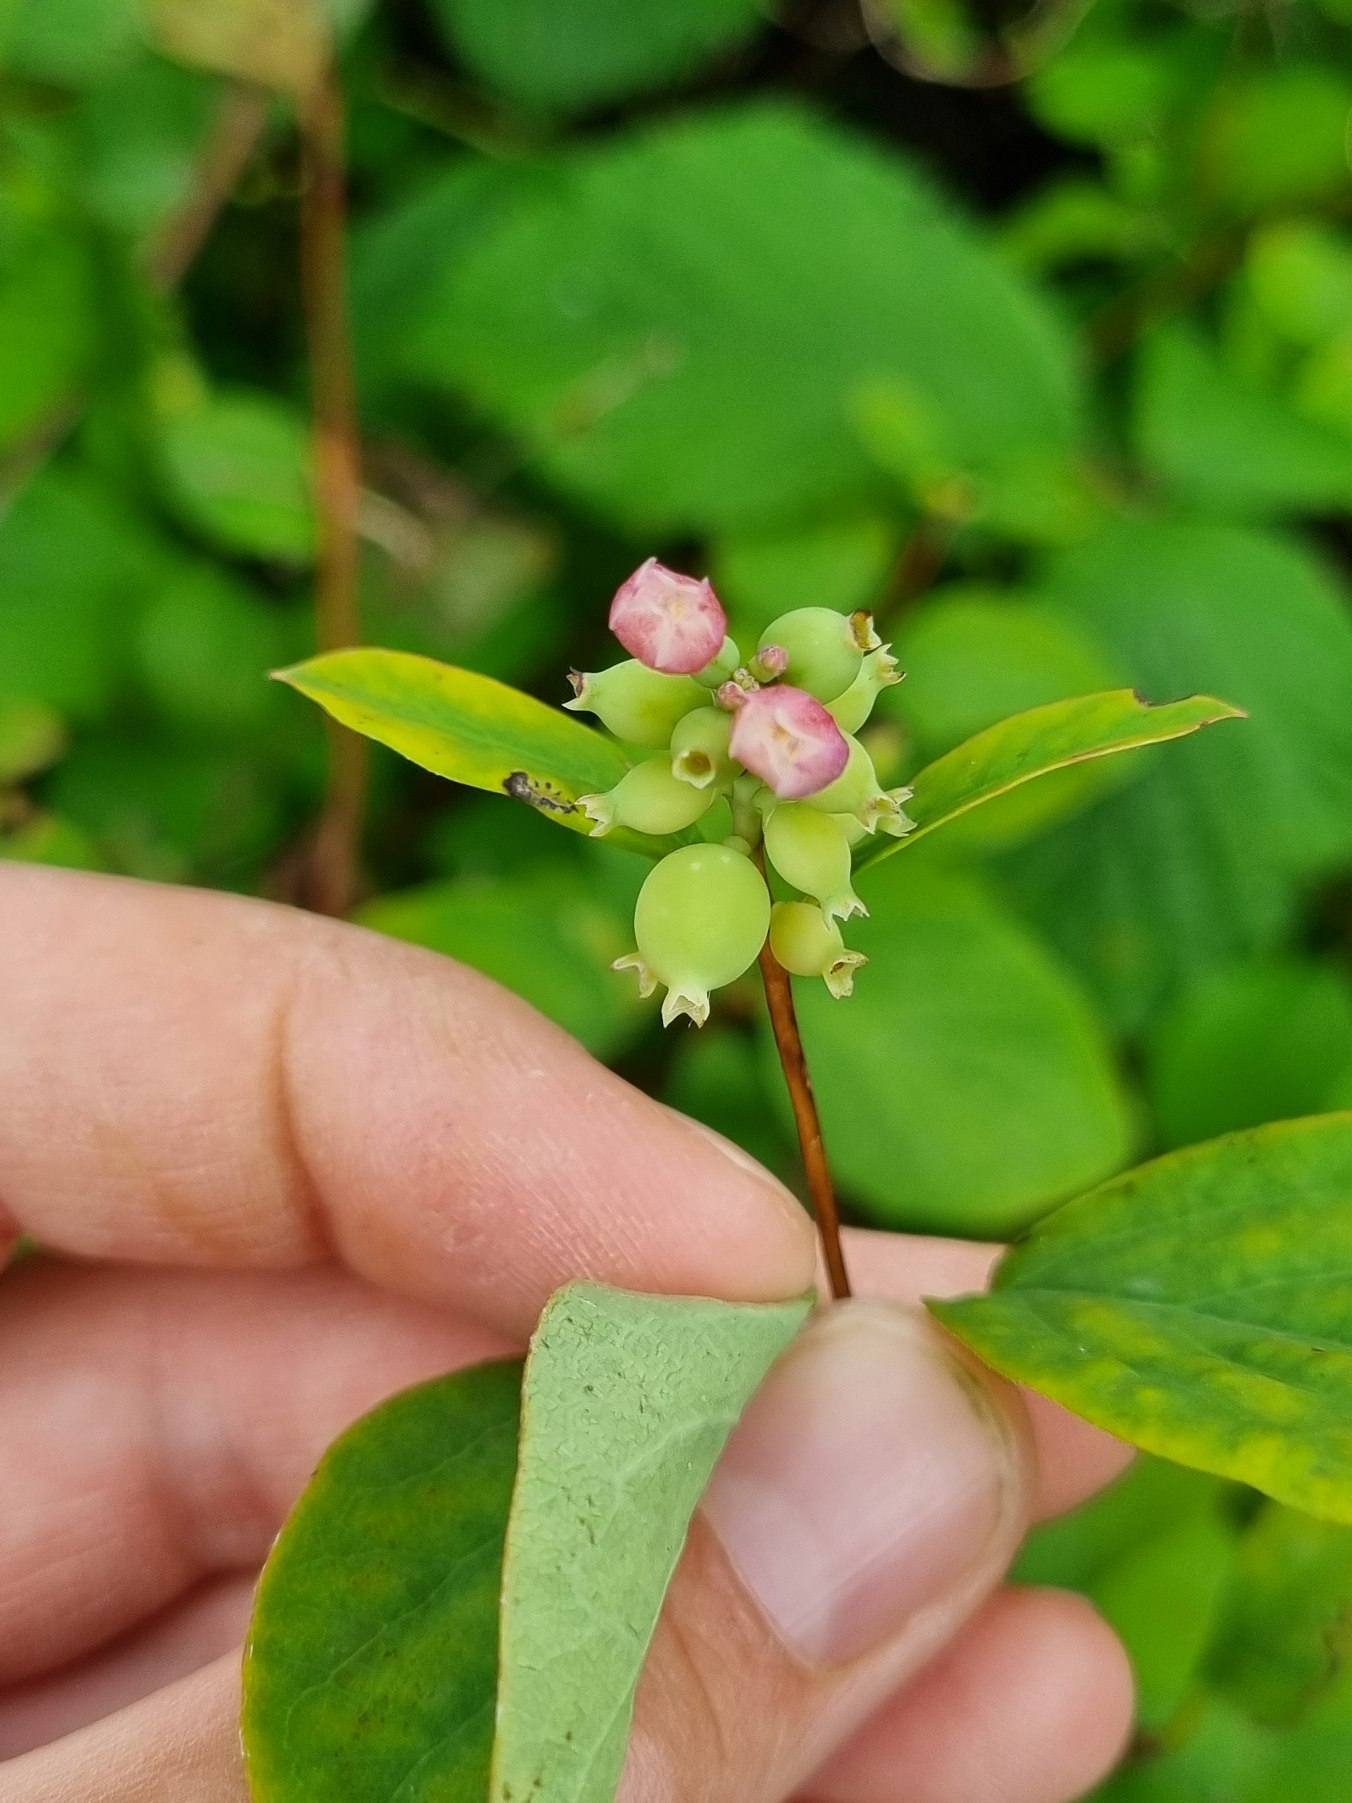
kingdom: Plantae
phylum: Tracheophyta
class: Magnoliopsida
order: Dipsacales
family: Caprifoliaceae
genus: Symphoricarpos
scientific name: Symphoricarpos albus
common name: Almindelig snebær
